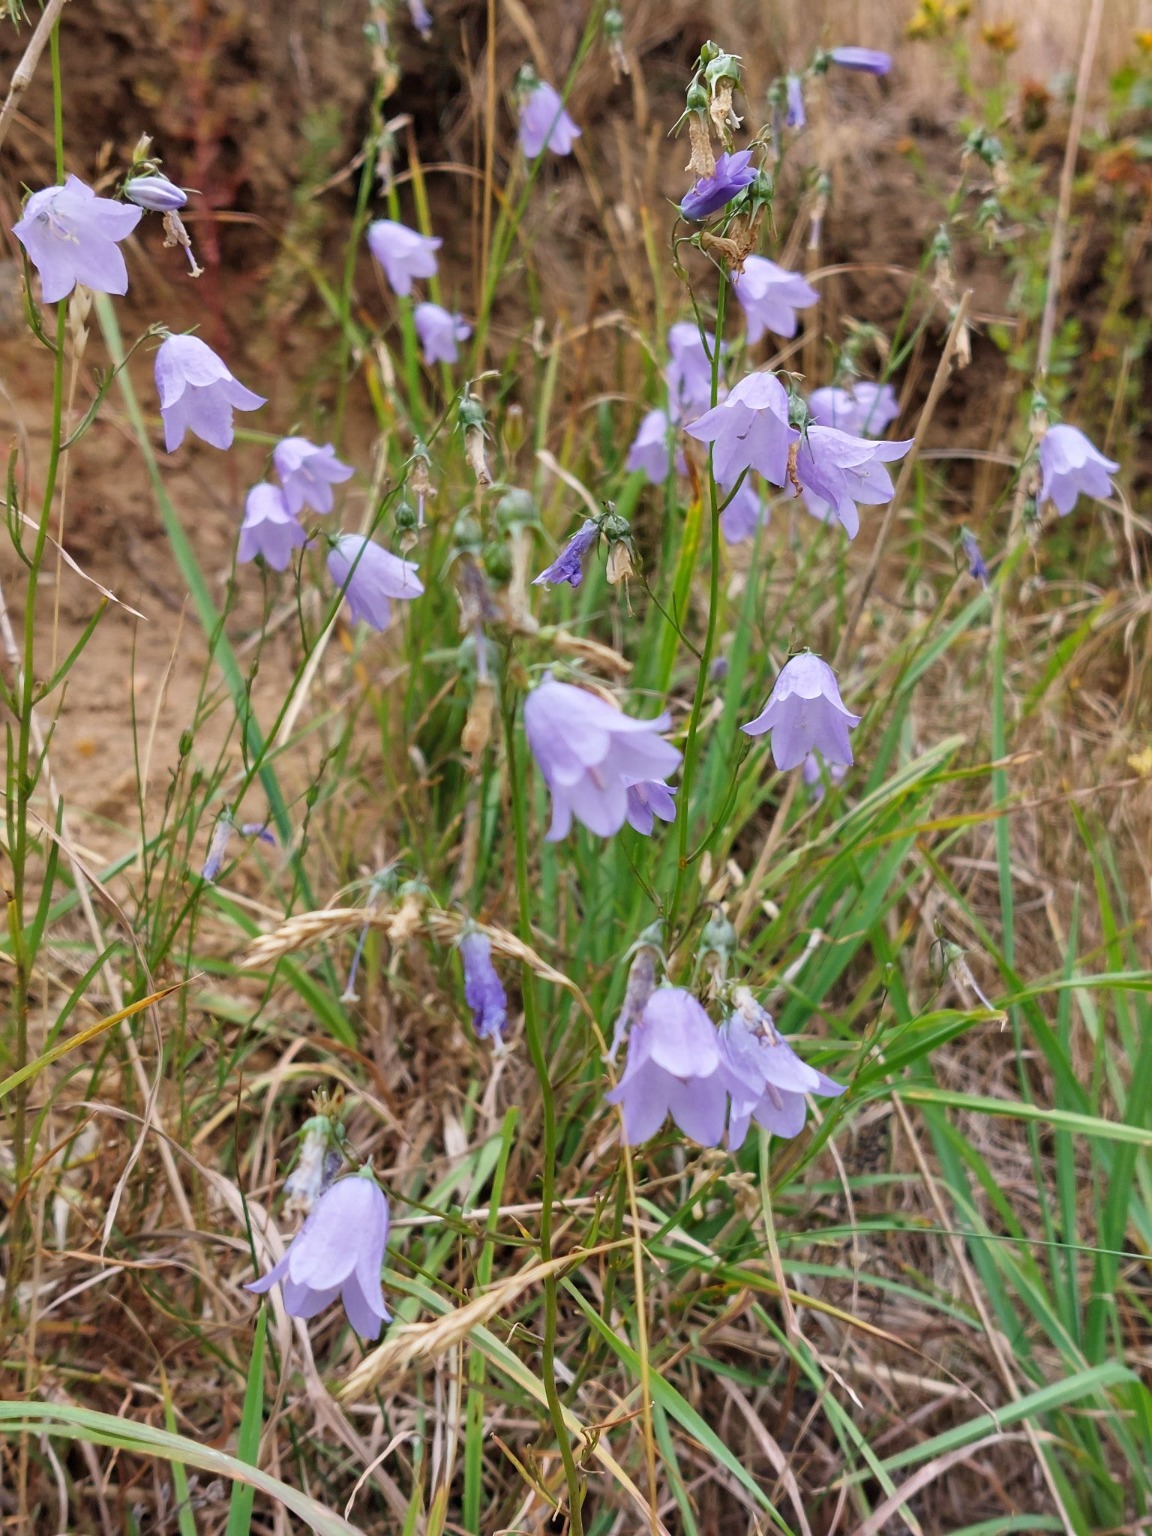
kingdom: Plantae
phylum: Tracheophyta
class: Magnoliopsida
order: Asterales
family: Campanulaceae
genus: Campanula
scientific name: Campanula rotundifolia
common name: Liden klokke
